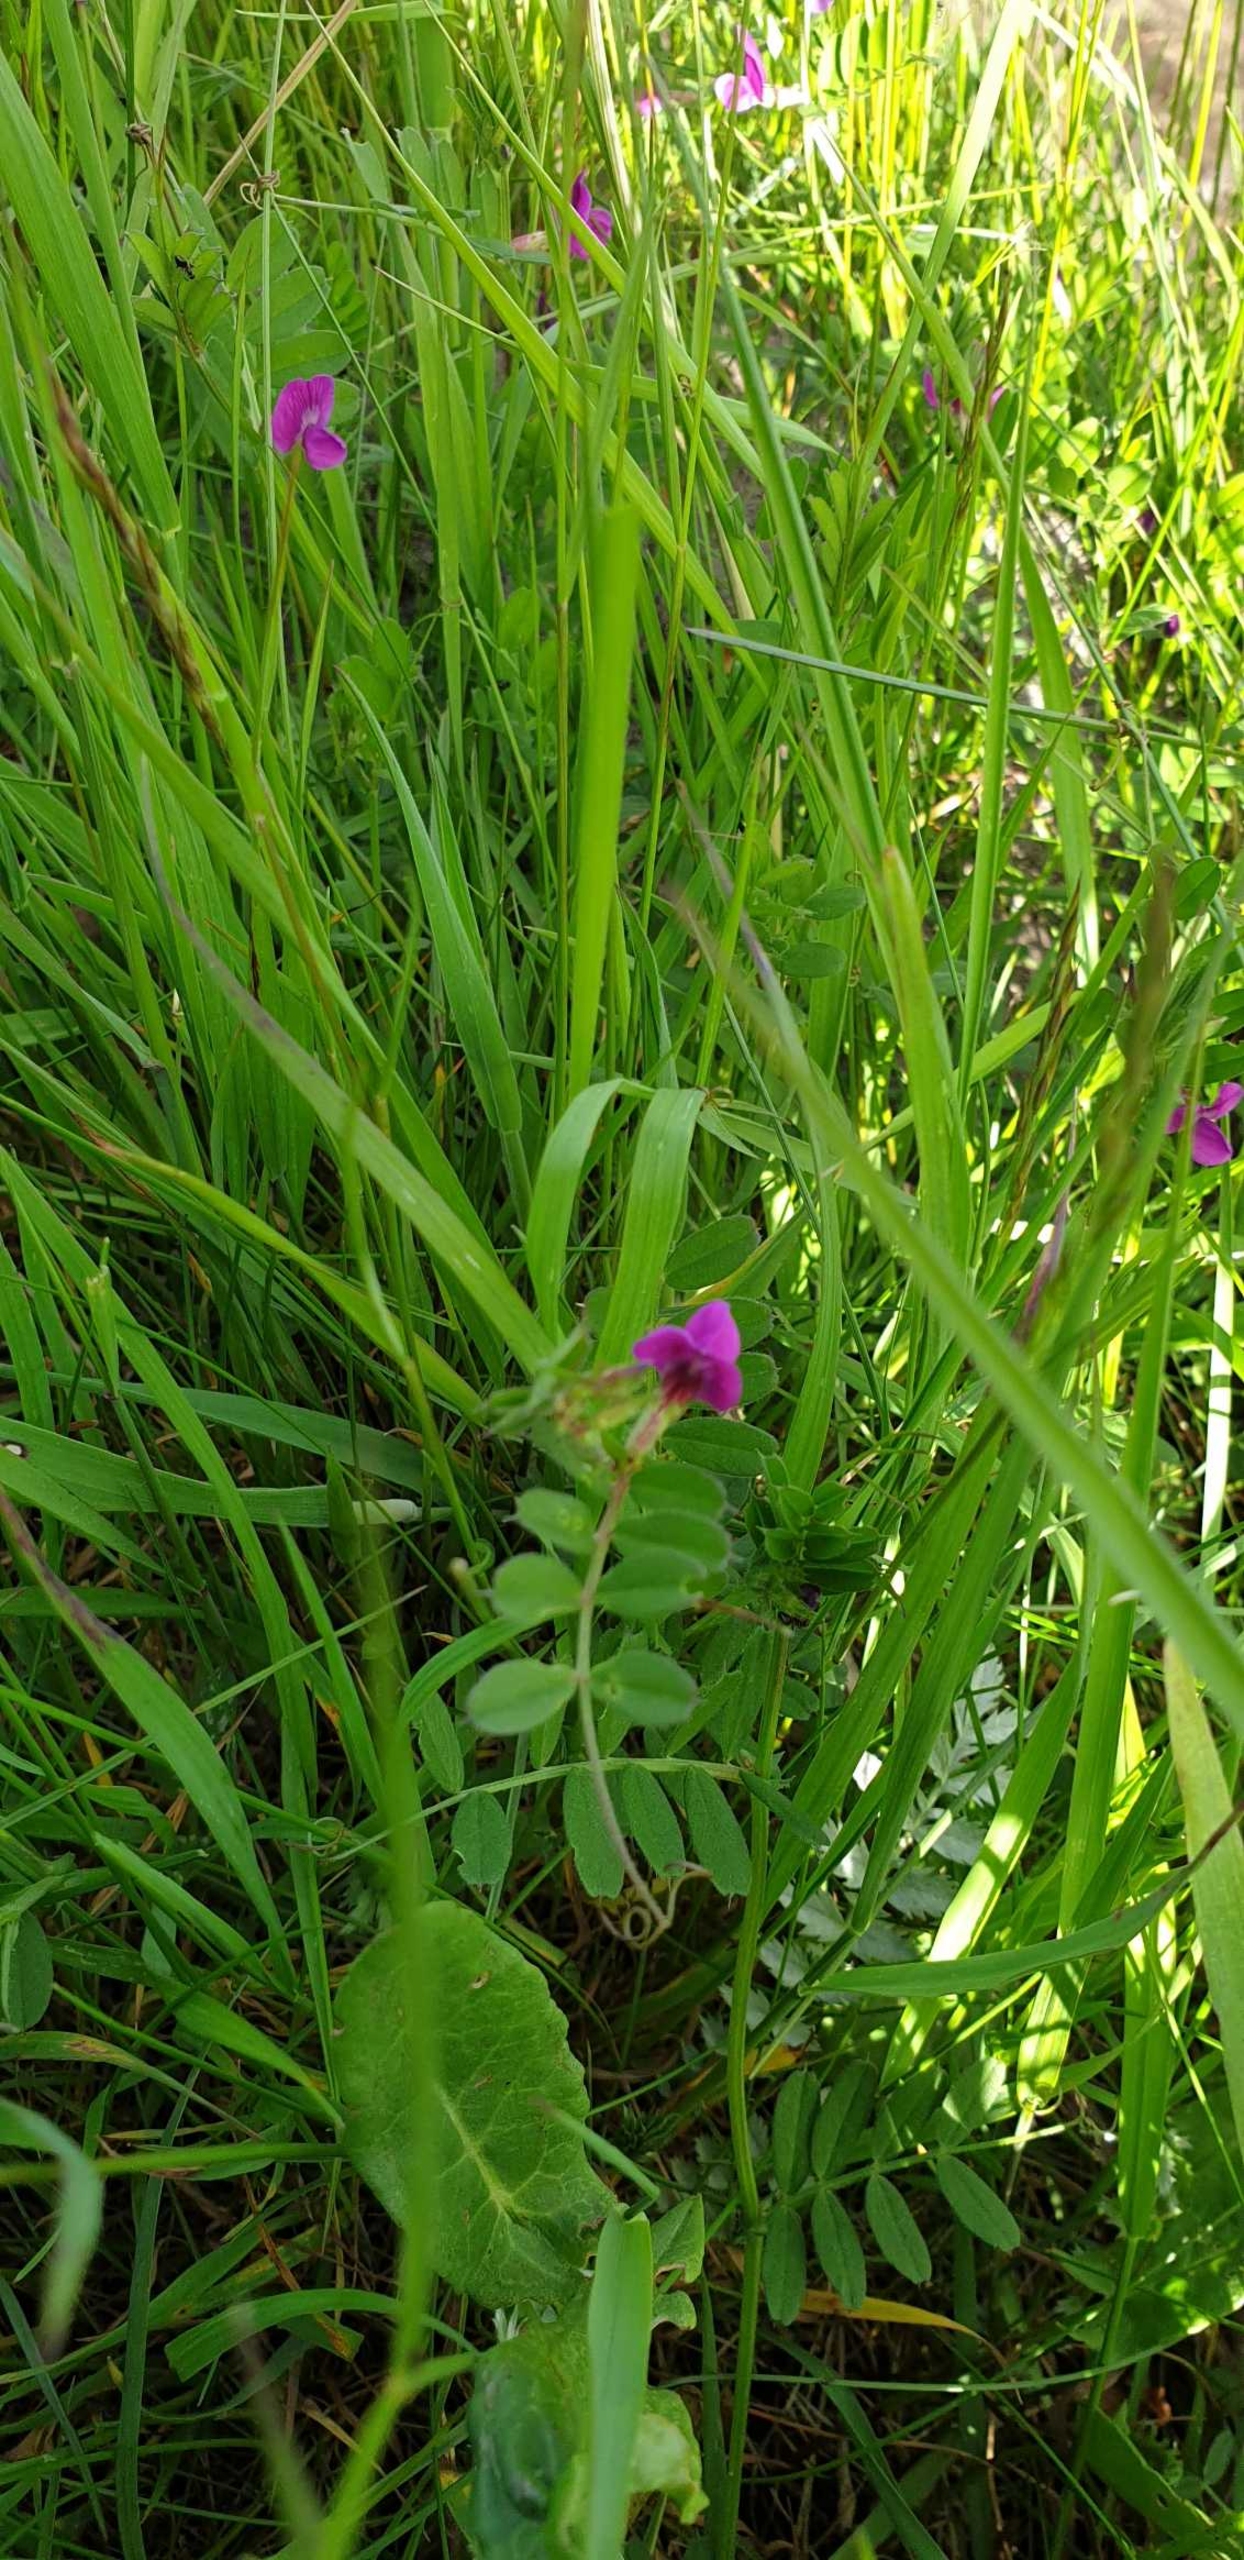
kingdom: Plantae
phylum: Tracheophyta
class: Magnoliopsida
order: Fabales
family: Fabaceae
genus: Vicia
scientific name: Vicia sativa
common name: Foder-vikke
